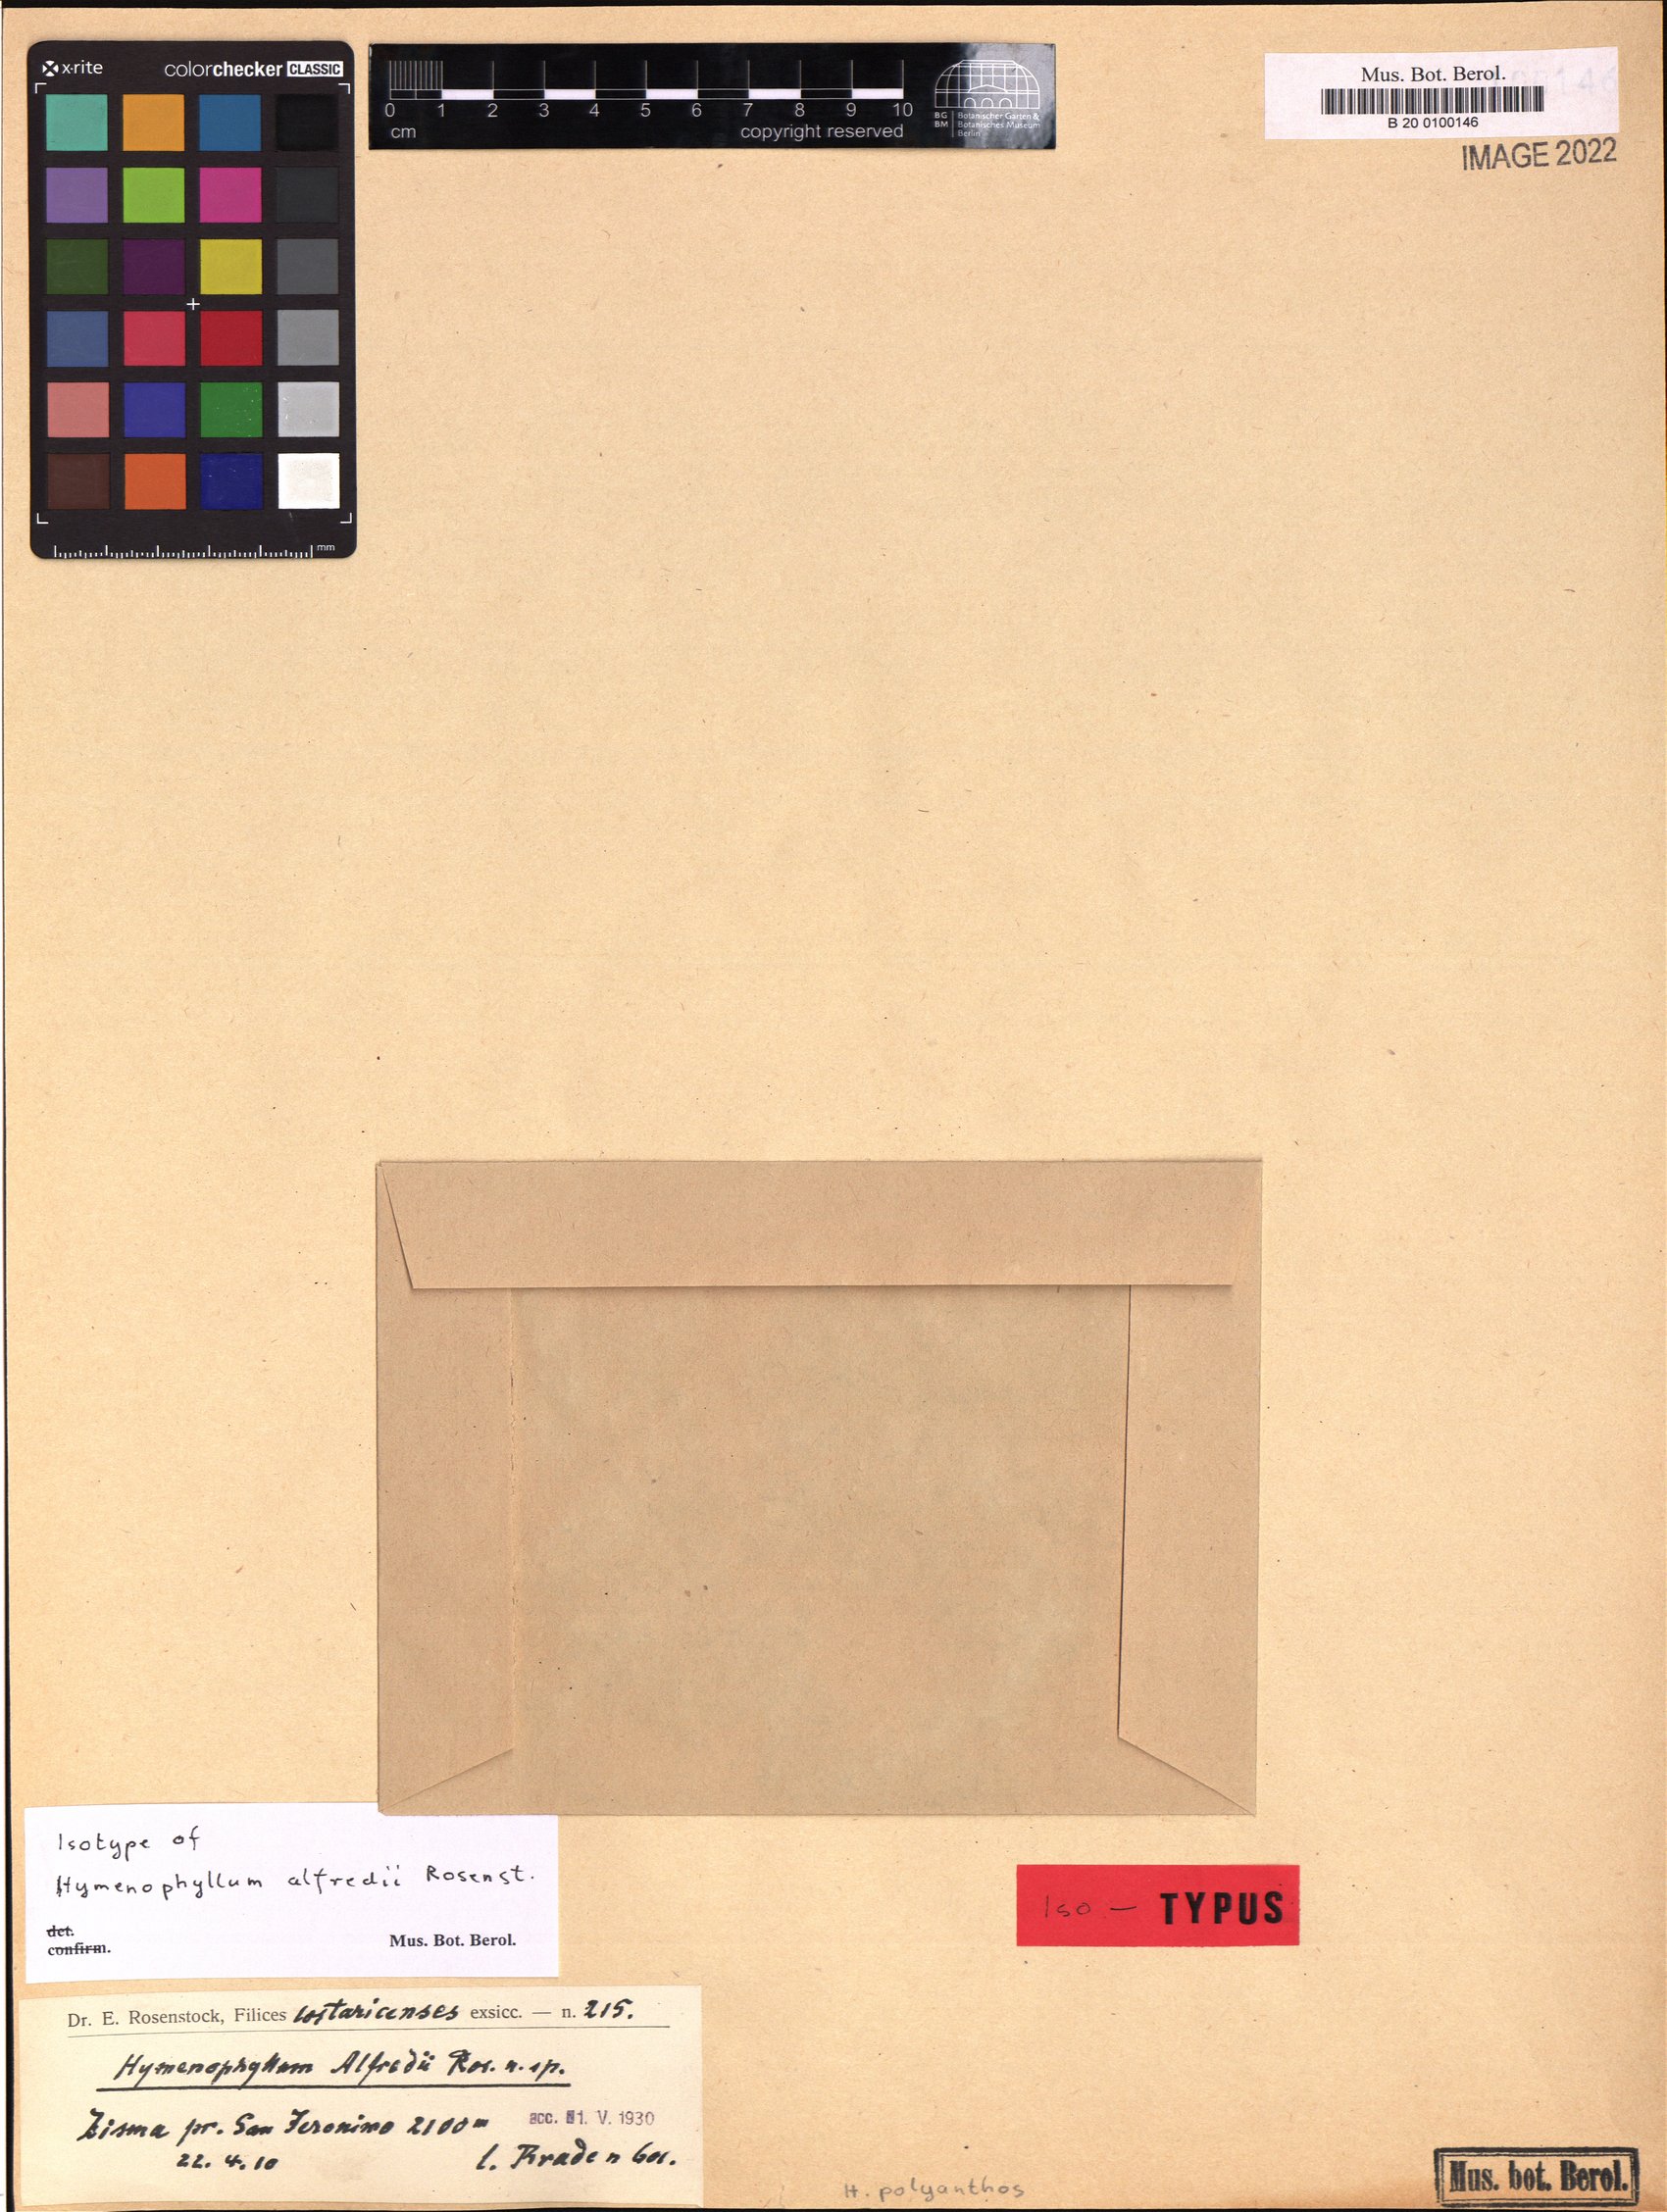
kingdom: Plantae
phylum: Tracheophyta
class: Polypodiopsida
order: Hymenophyllales
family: Hymenophyllaceae
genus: Hymenophyllum
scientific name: Hymenophyllum polyanthos
